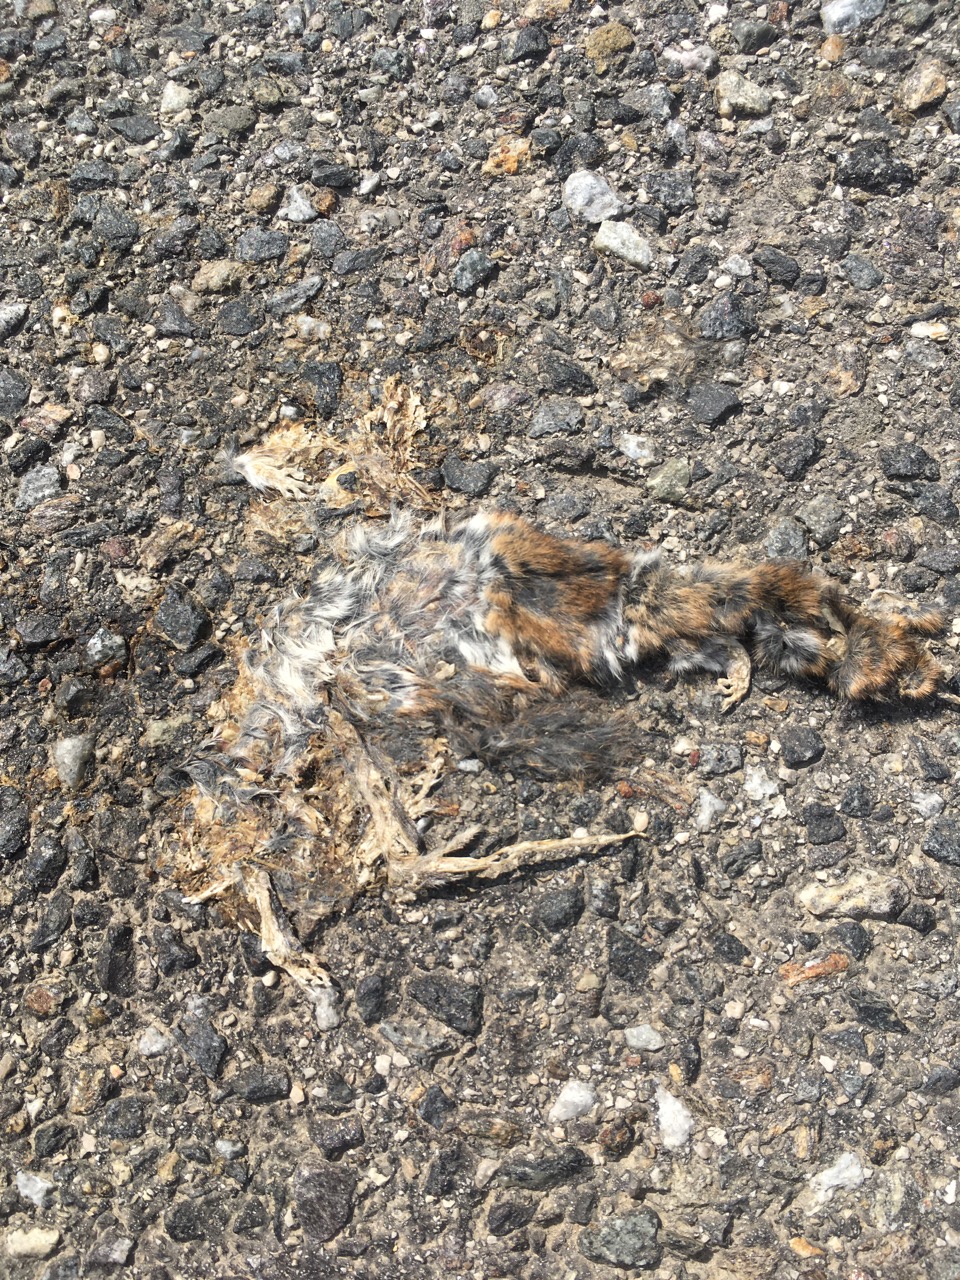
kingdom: Animalia
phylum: Chordata
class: Mammalia
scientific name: Mammalia
